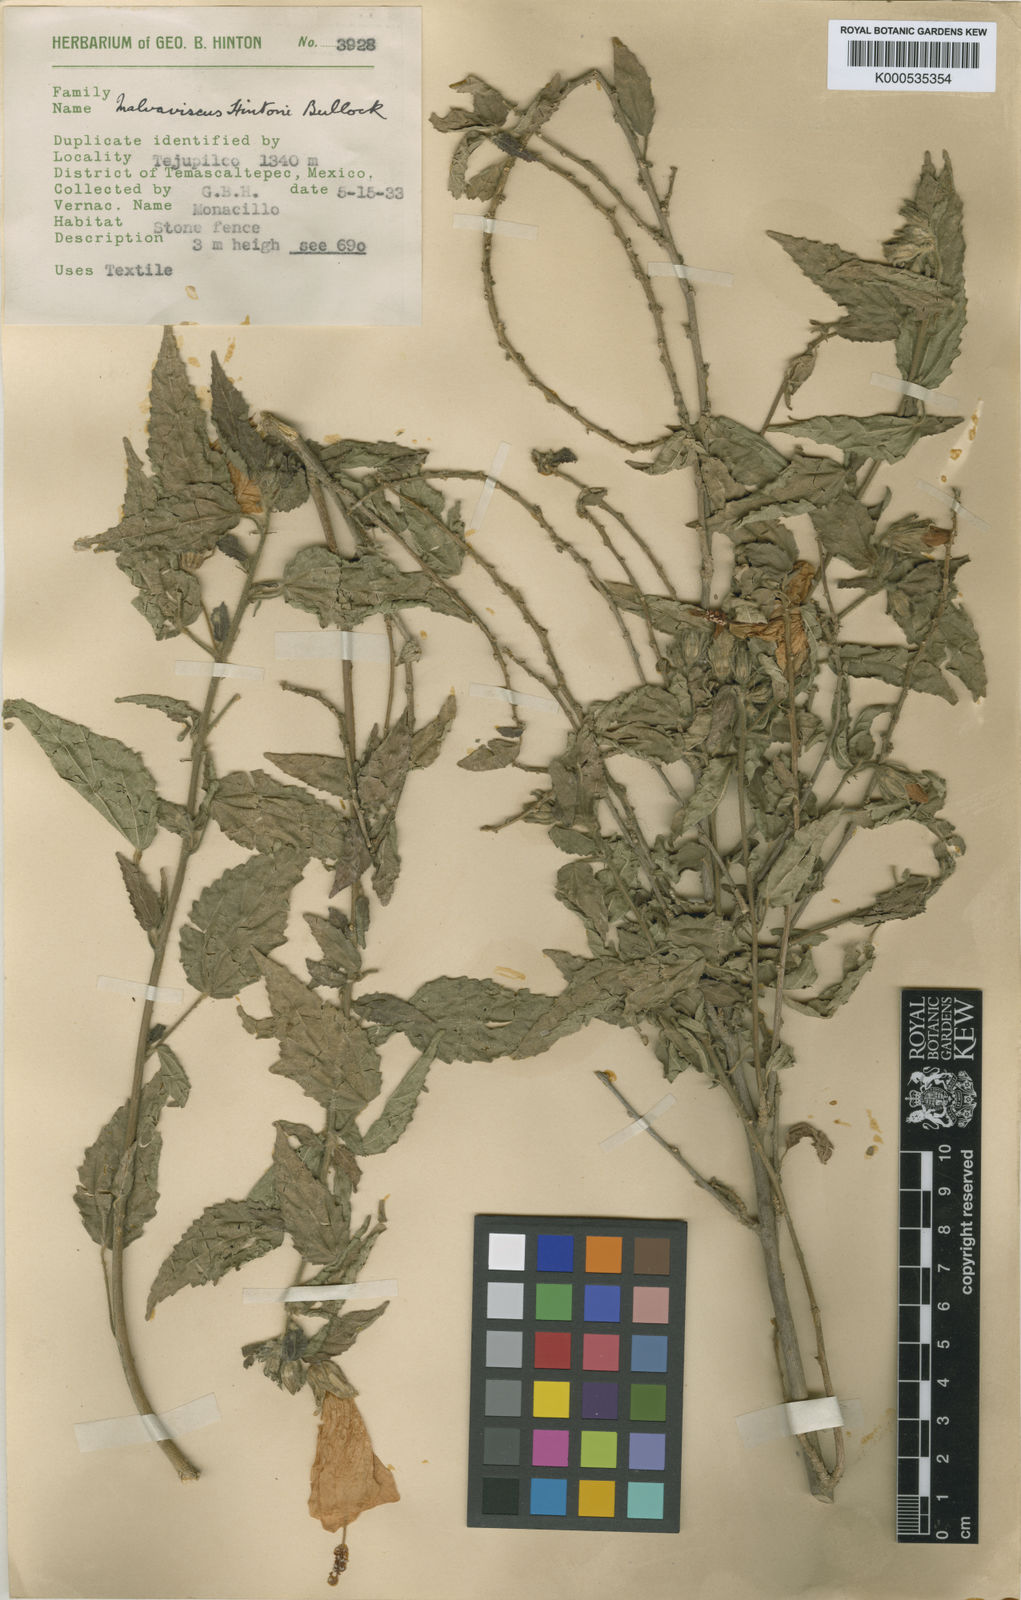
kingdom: Plantae
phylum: Tracheophyta
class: Magnoliopsida
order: Malvales
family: Malvaceae
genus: Malvaviscus
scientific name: Malvaviscus urticifolius
